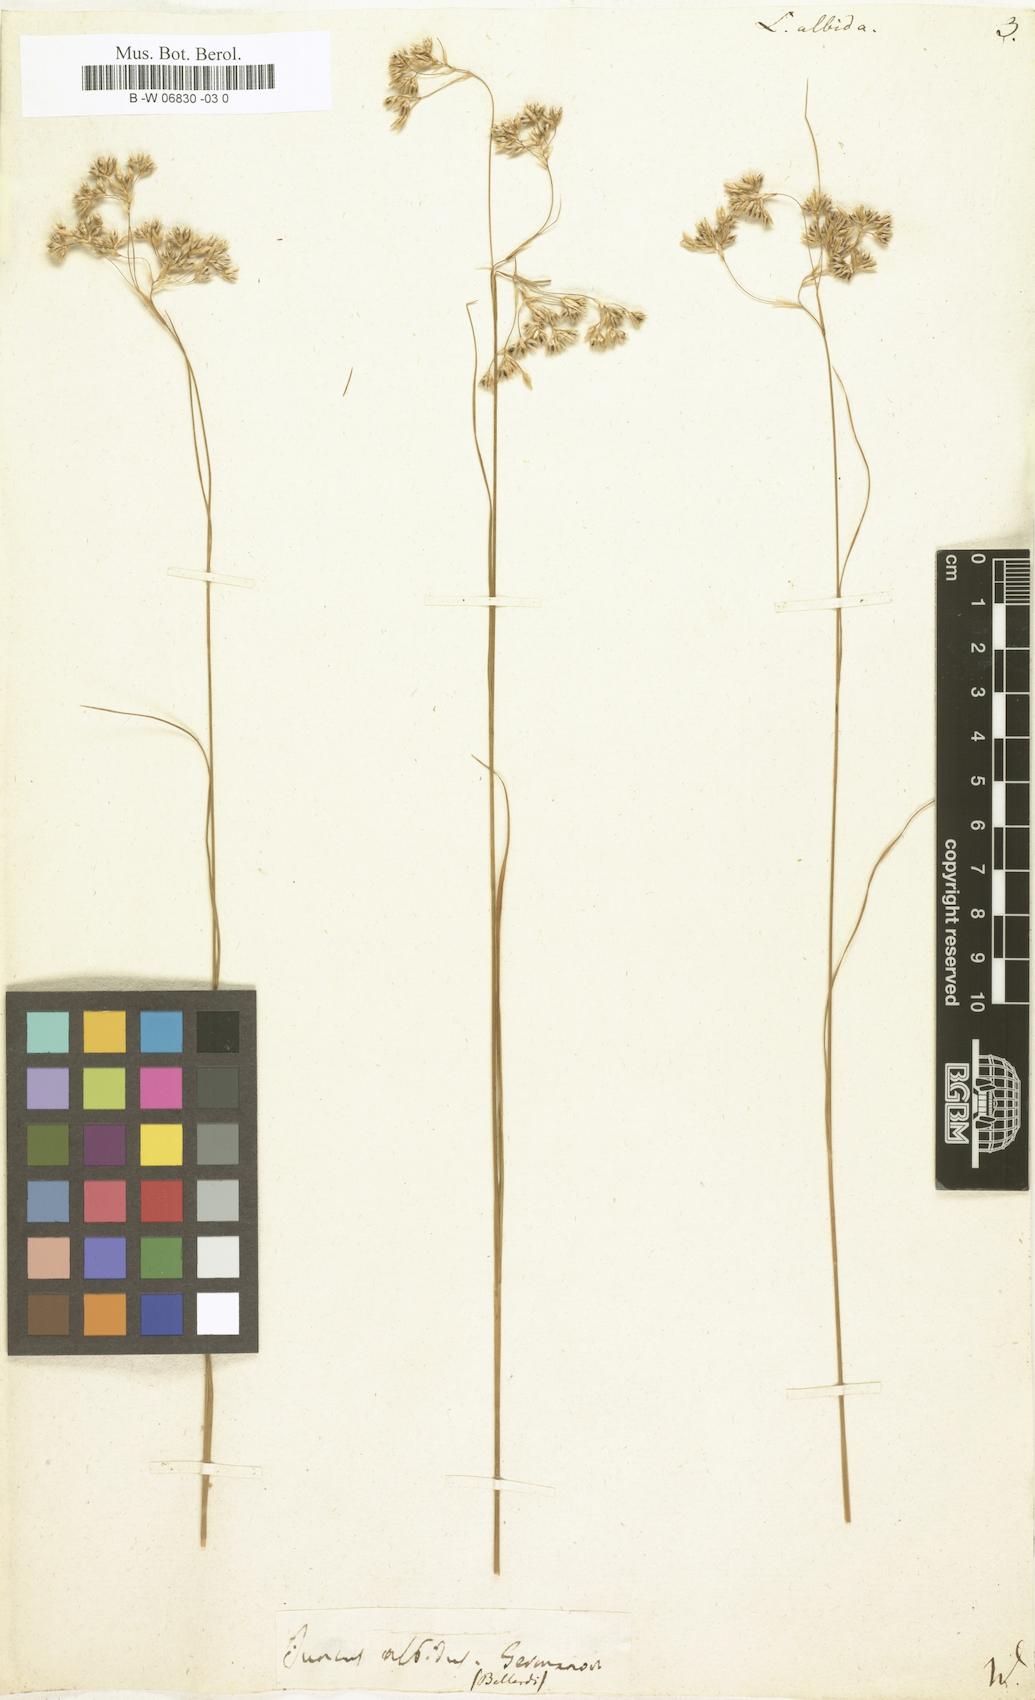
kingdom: Plantae
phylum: Tracheophyta
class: Liliopsida
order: Poales
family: Juncaceae
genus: Luzula
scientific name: Luzula albida
